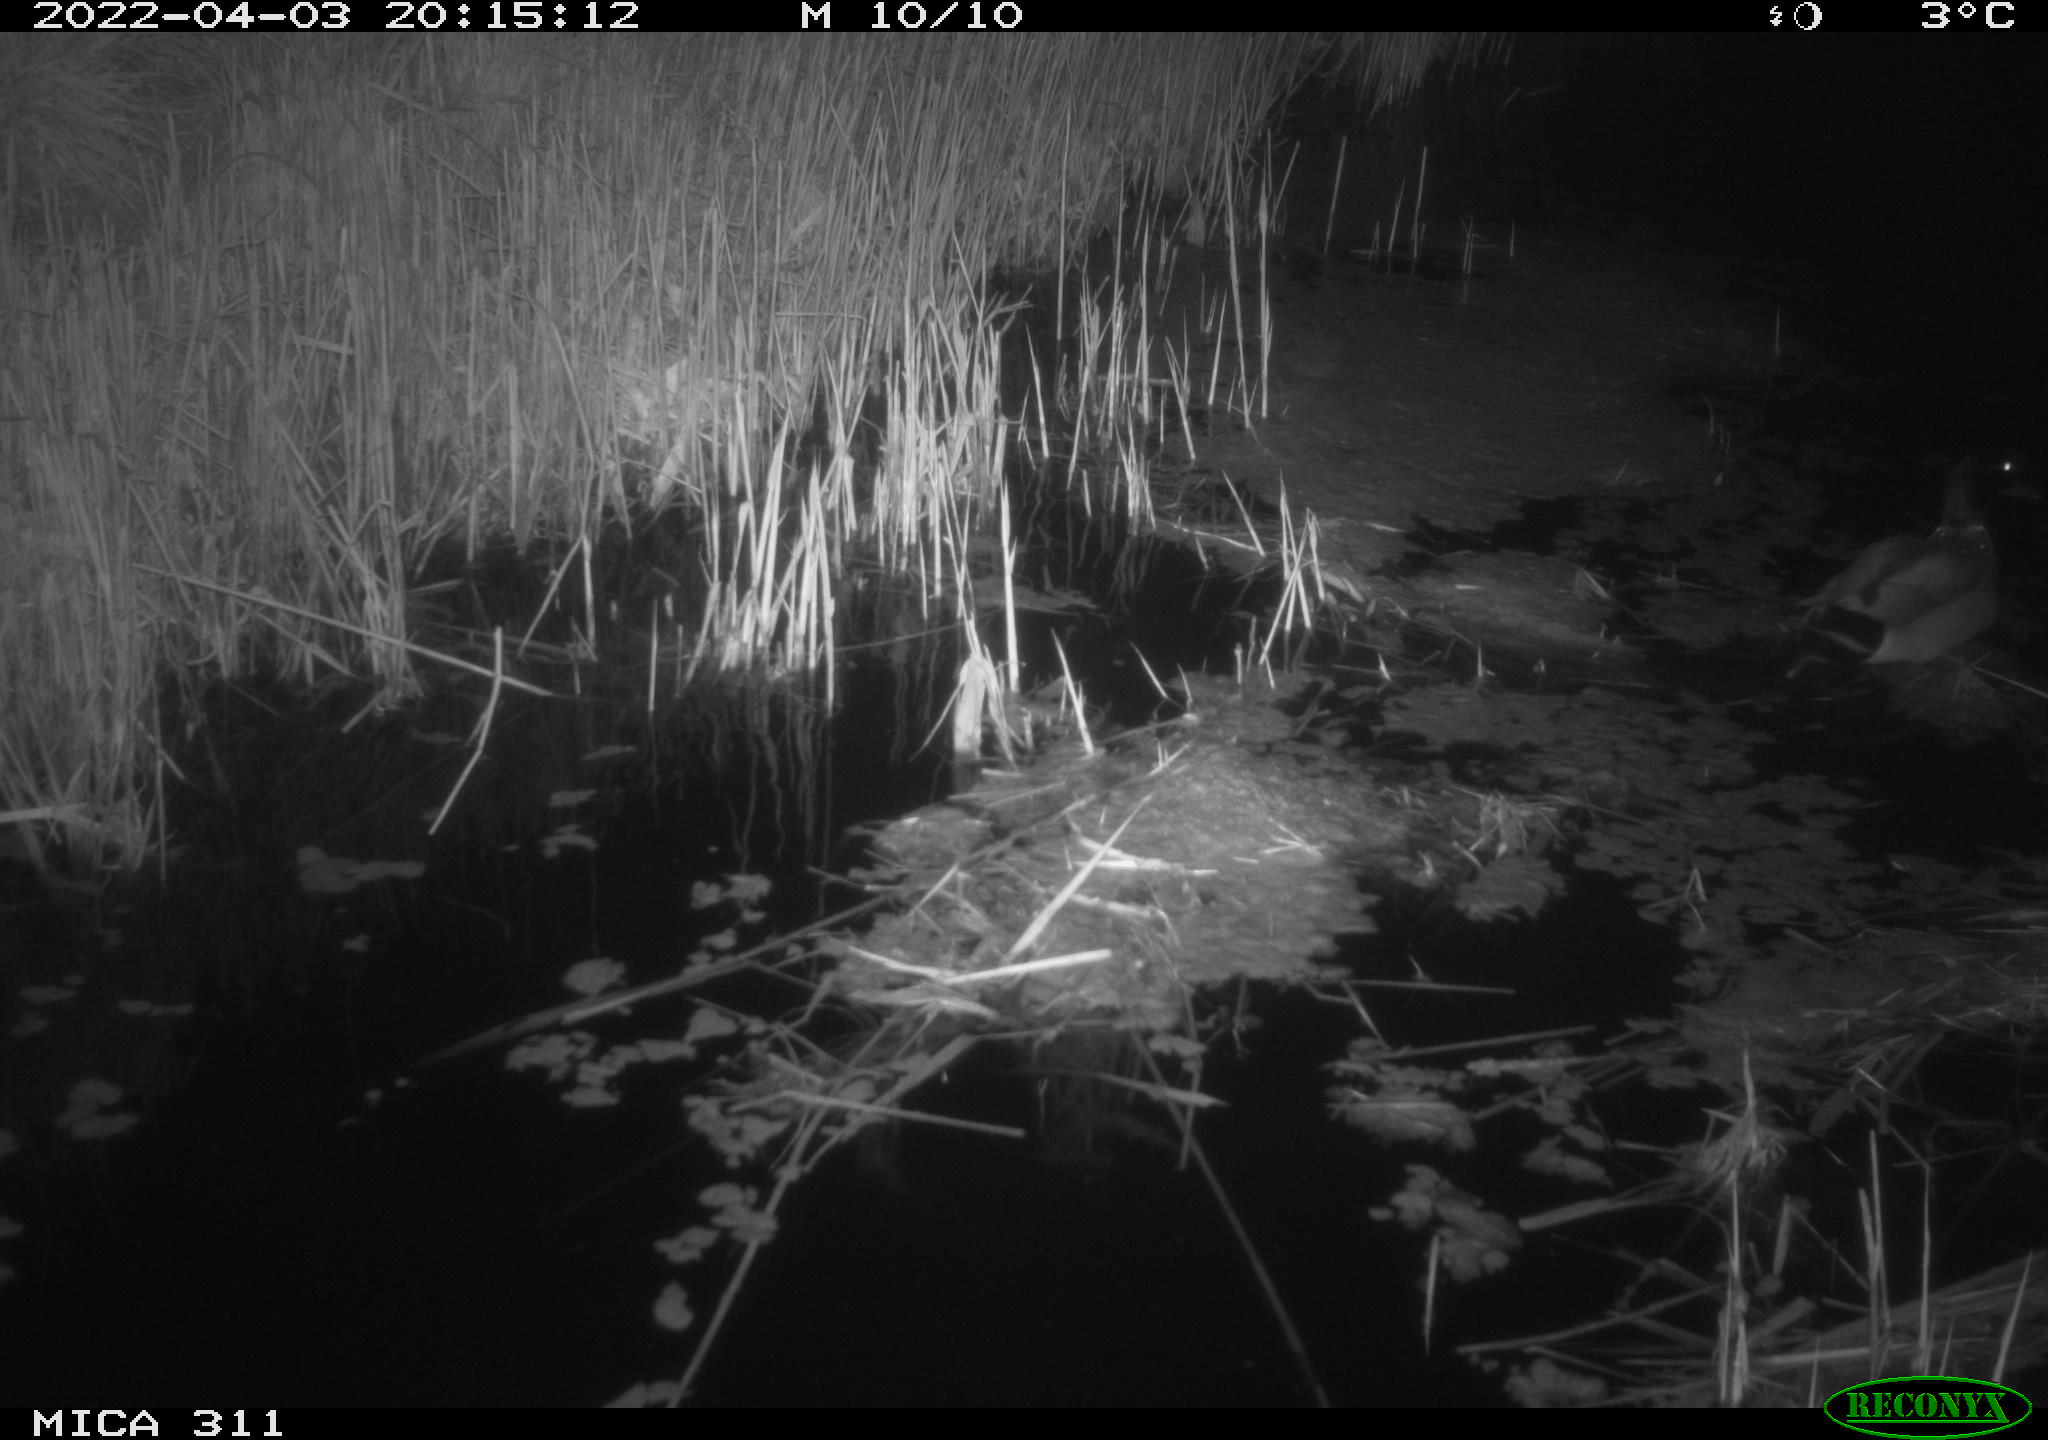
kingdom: Animalia
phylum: Chordata
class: Aves
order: Anseriformes
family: Anatidae
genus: Anas
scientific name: Anas
